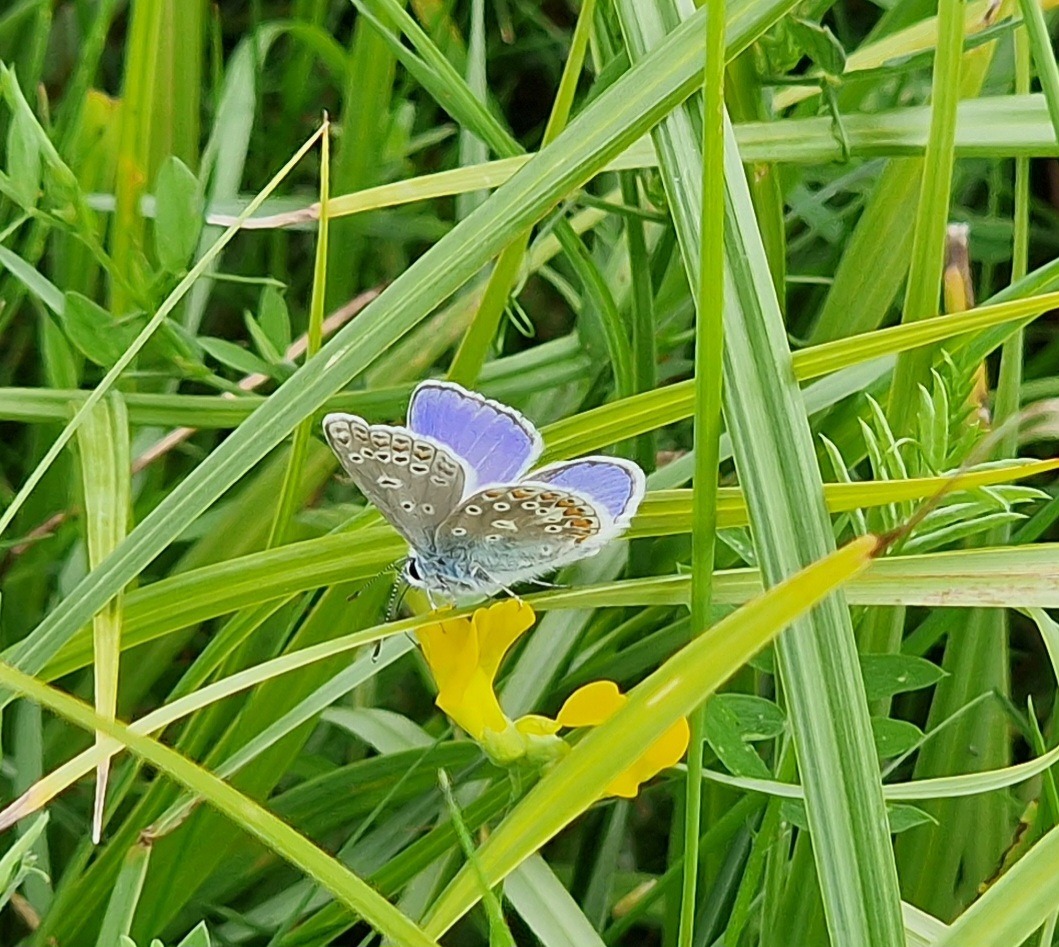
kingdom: Animalia
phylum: Arthropoda
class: Insecta
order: Lepidoptera
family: Lycaenidae
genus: Polyommatus
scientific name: Polyommatus icarus
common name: Almindelig blåfugl
